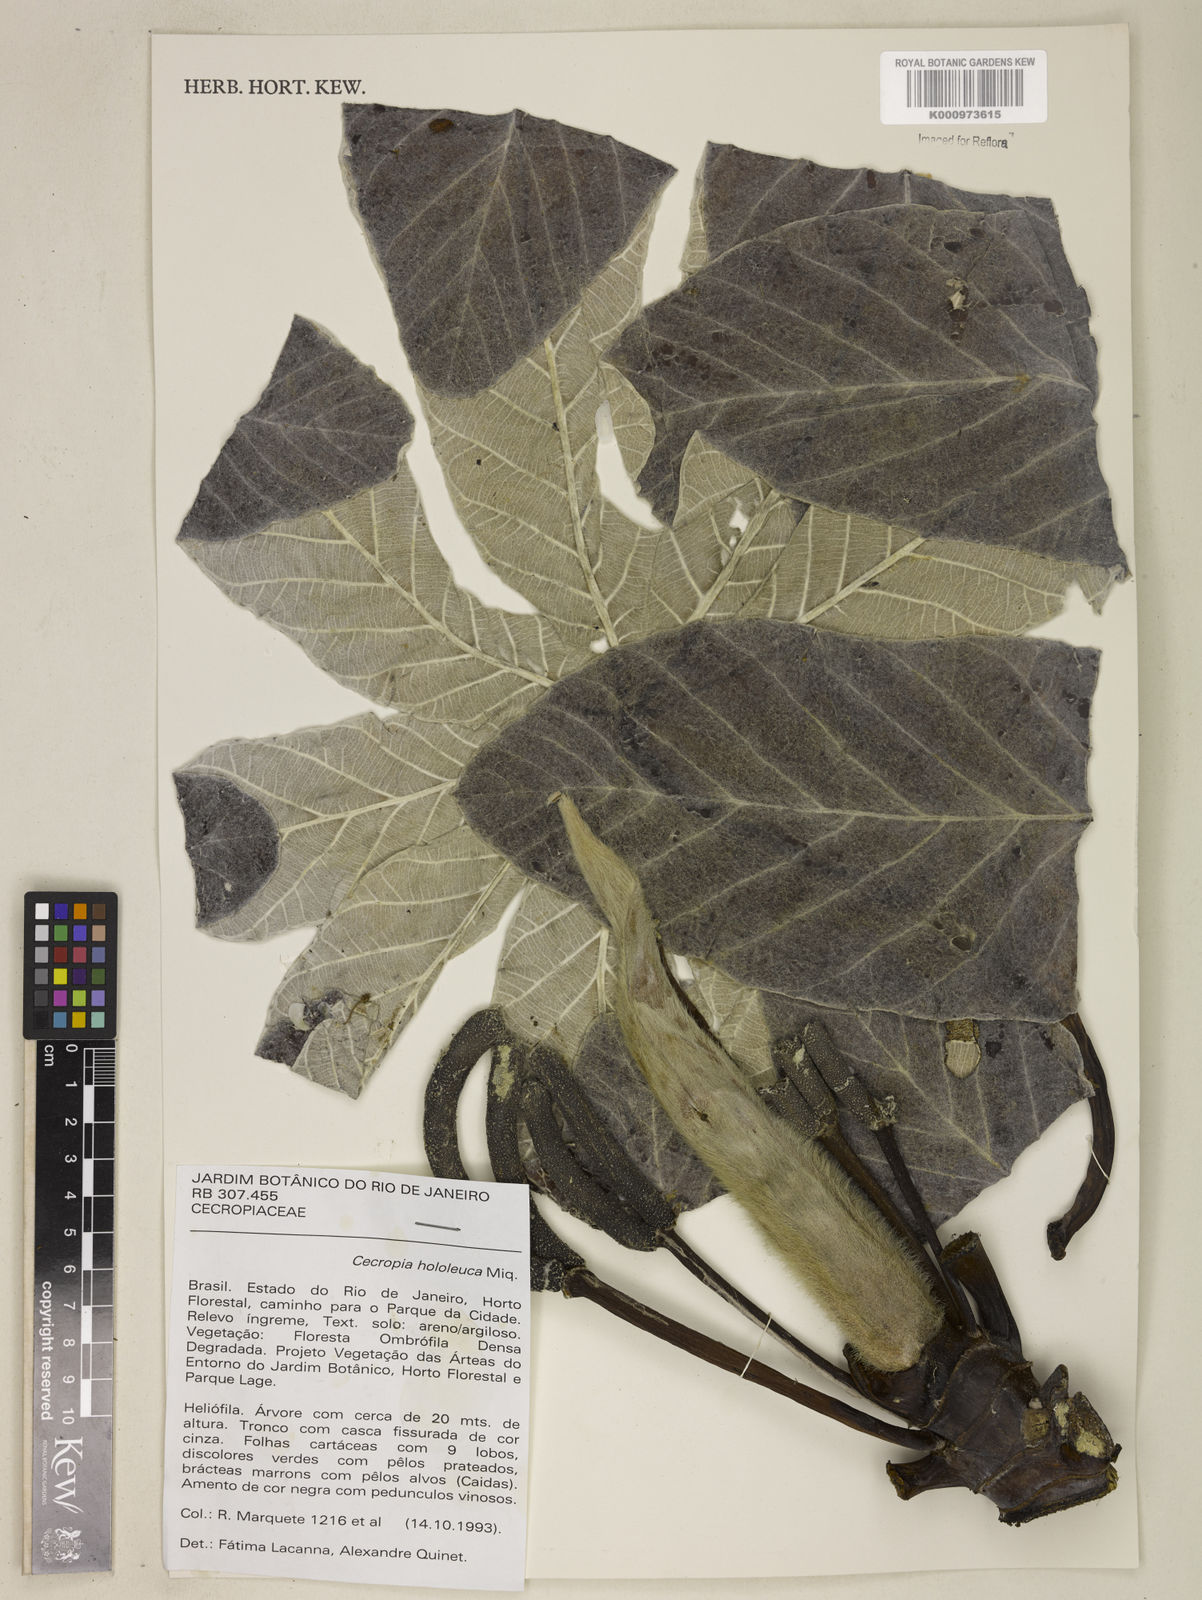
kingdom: Plantae
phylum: Tracheophyta
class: Magnoliopsida
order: Rosales
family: Urticaceae
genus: Cecropia
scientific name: Cecropia hololeuca
